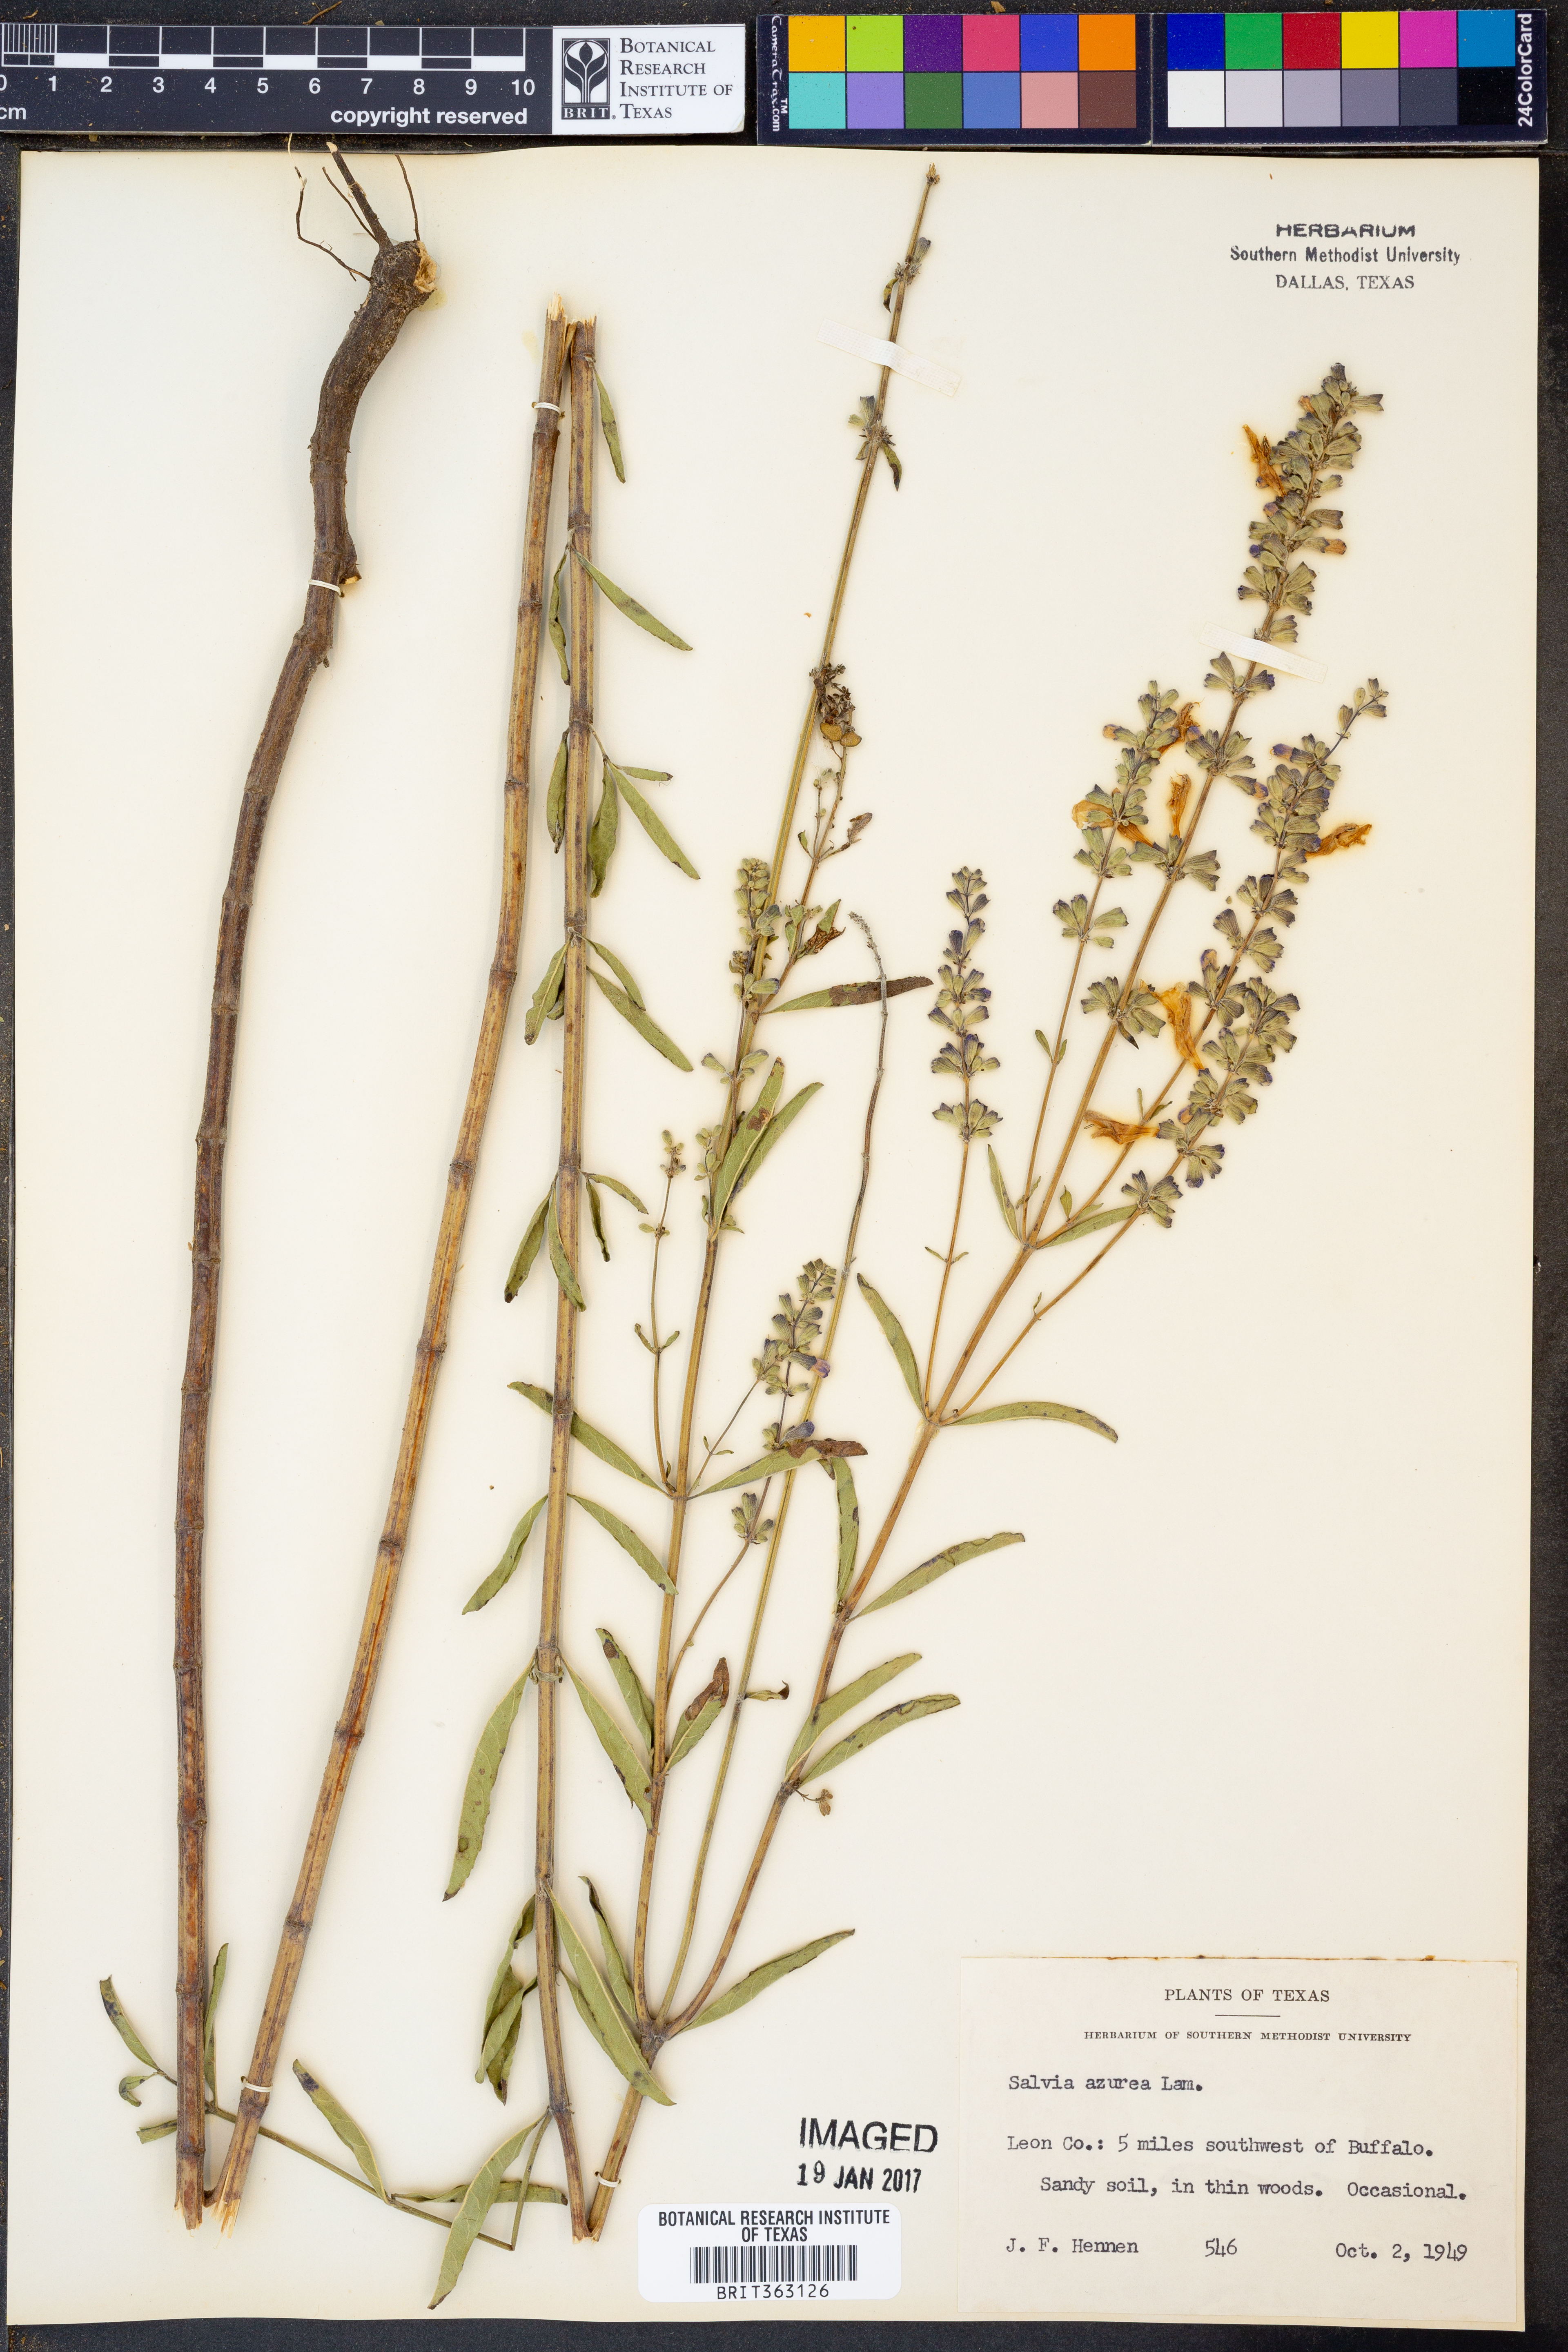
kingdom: Plantae
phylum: Tracheophyta
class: Magnoliopsida
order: Lamiales
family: Lamiaceae
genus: Salvia
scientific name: Salvia azurea
